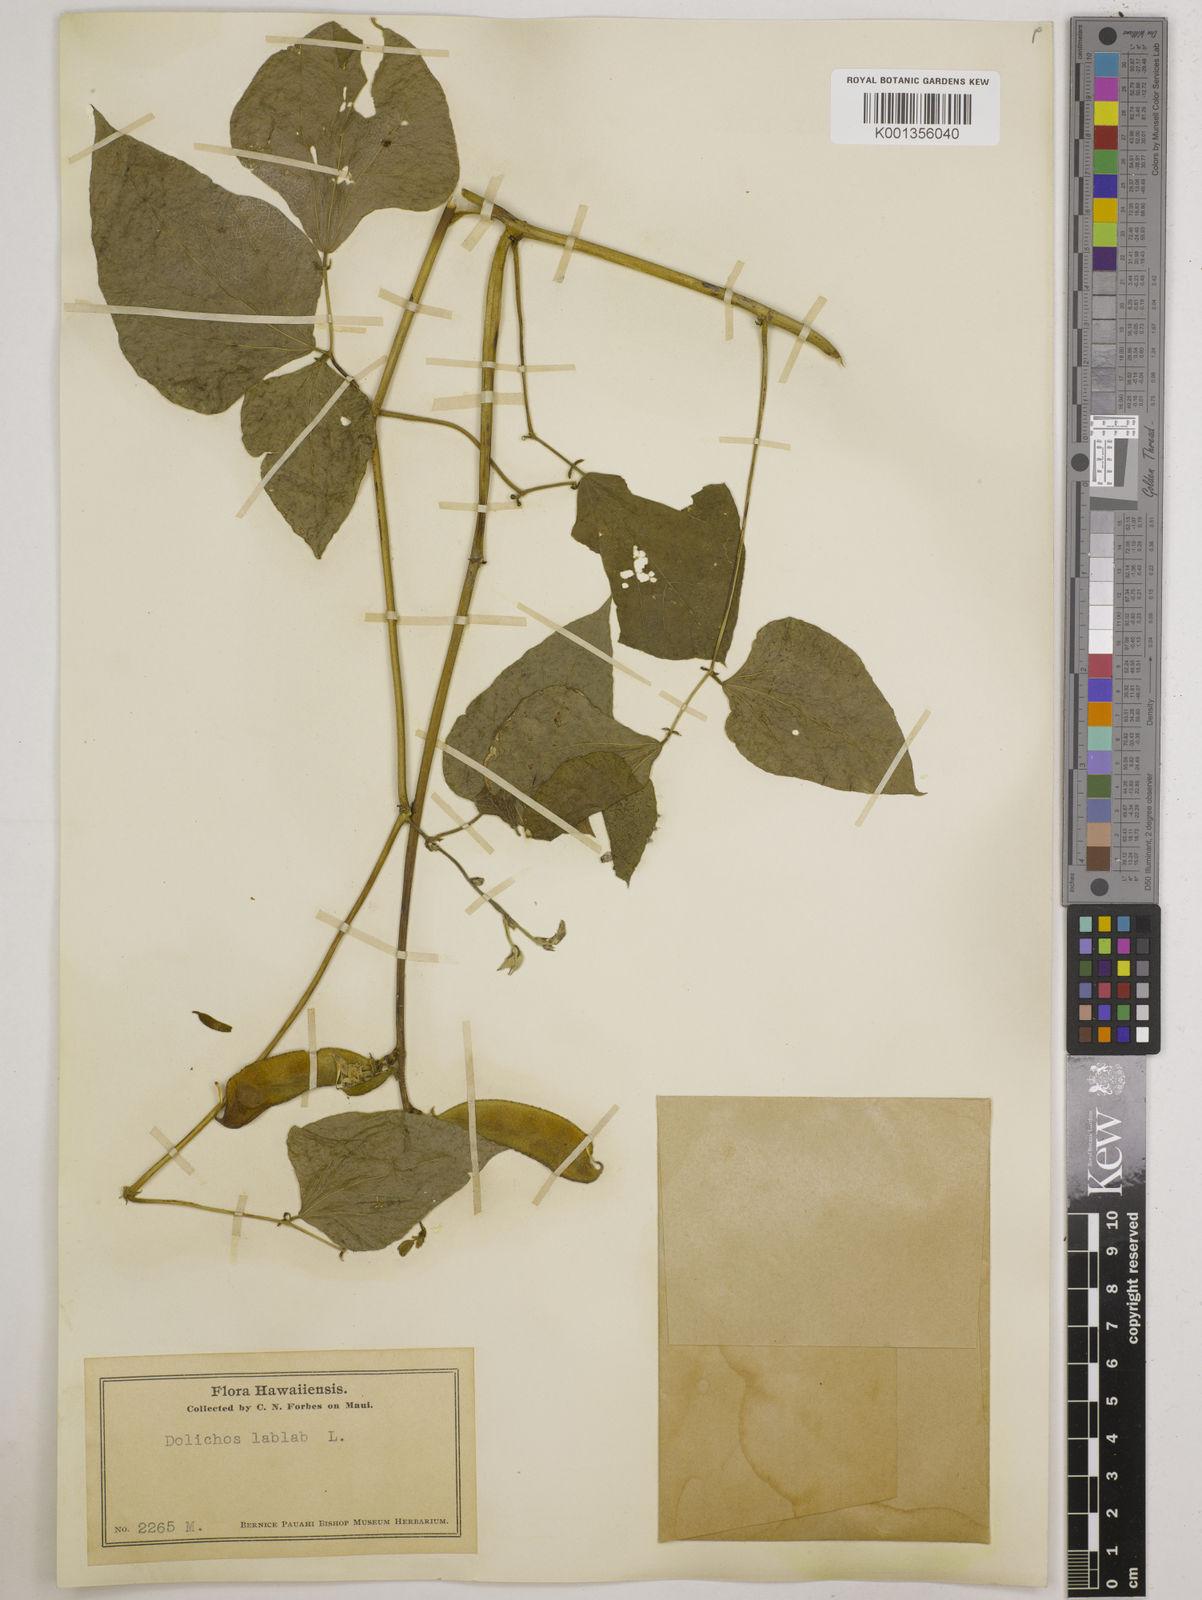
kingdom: Plantae
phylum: Tracheophyta
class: Magnoliopsida
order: Fabales
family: Fabaceae
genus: Lablab
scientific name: Lablab purpureus
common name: Lablab-bean
